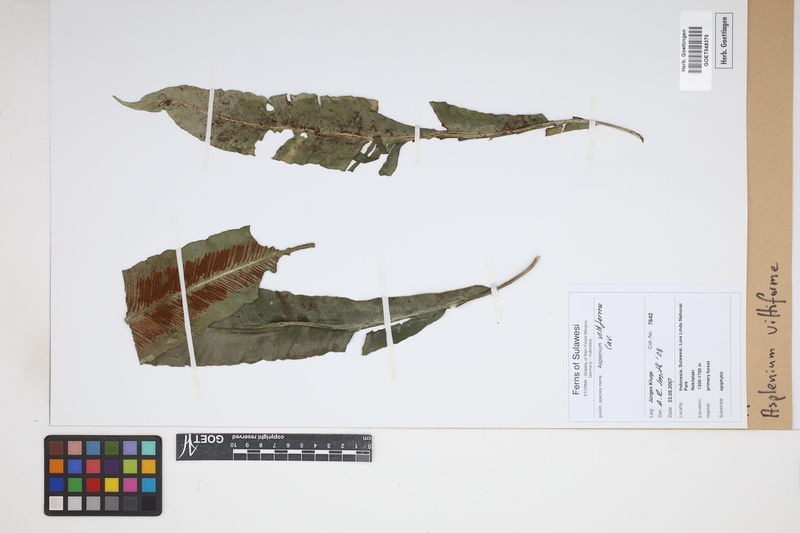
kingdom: Plantae
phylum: Tracheophyta
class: Polypodiopsida
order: Polypodiales
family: Aspleniaceae
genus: Asplenium
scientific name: Asplenium vittaeforme
